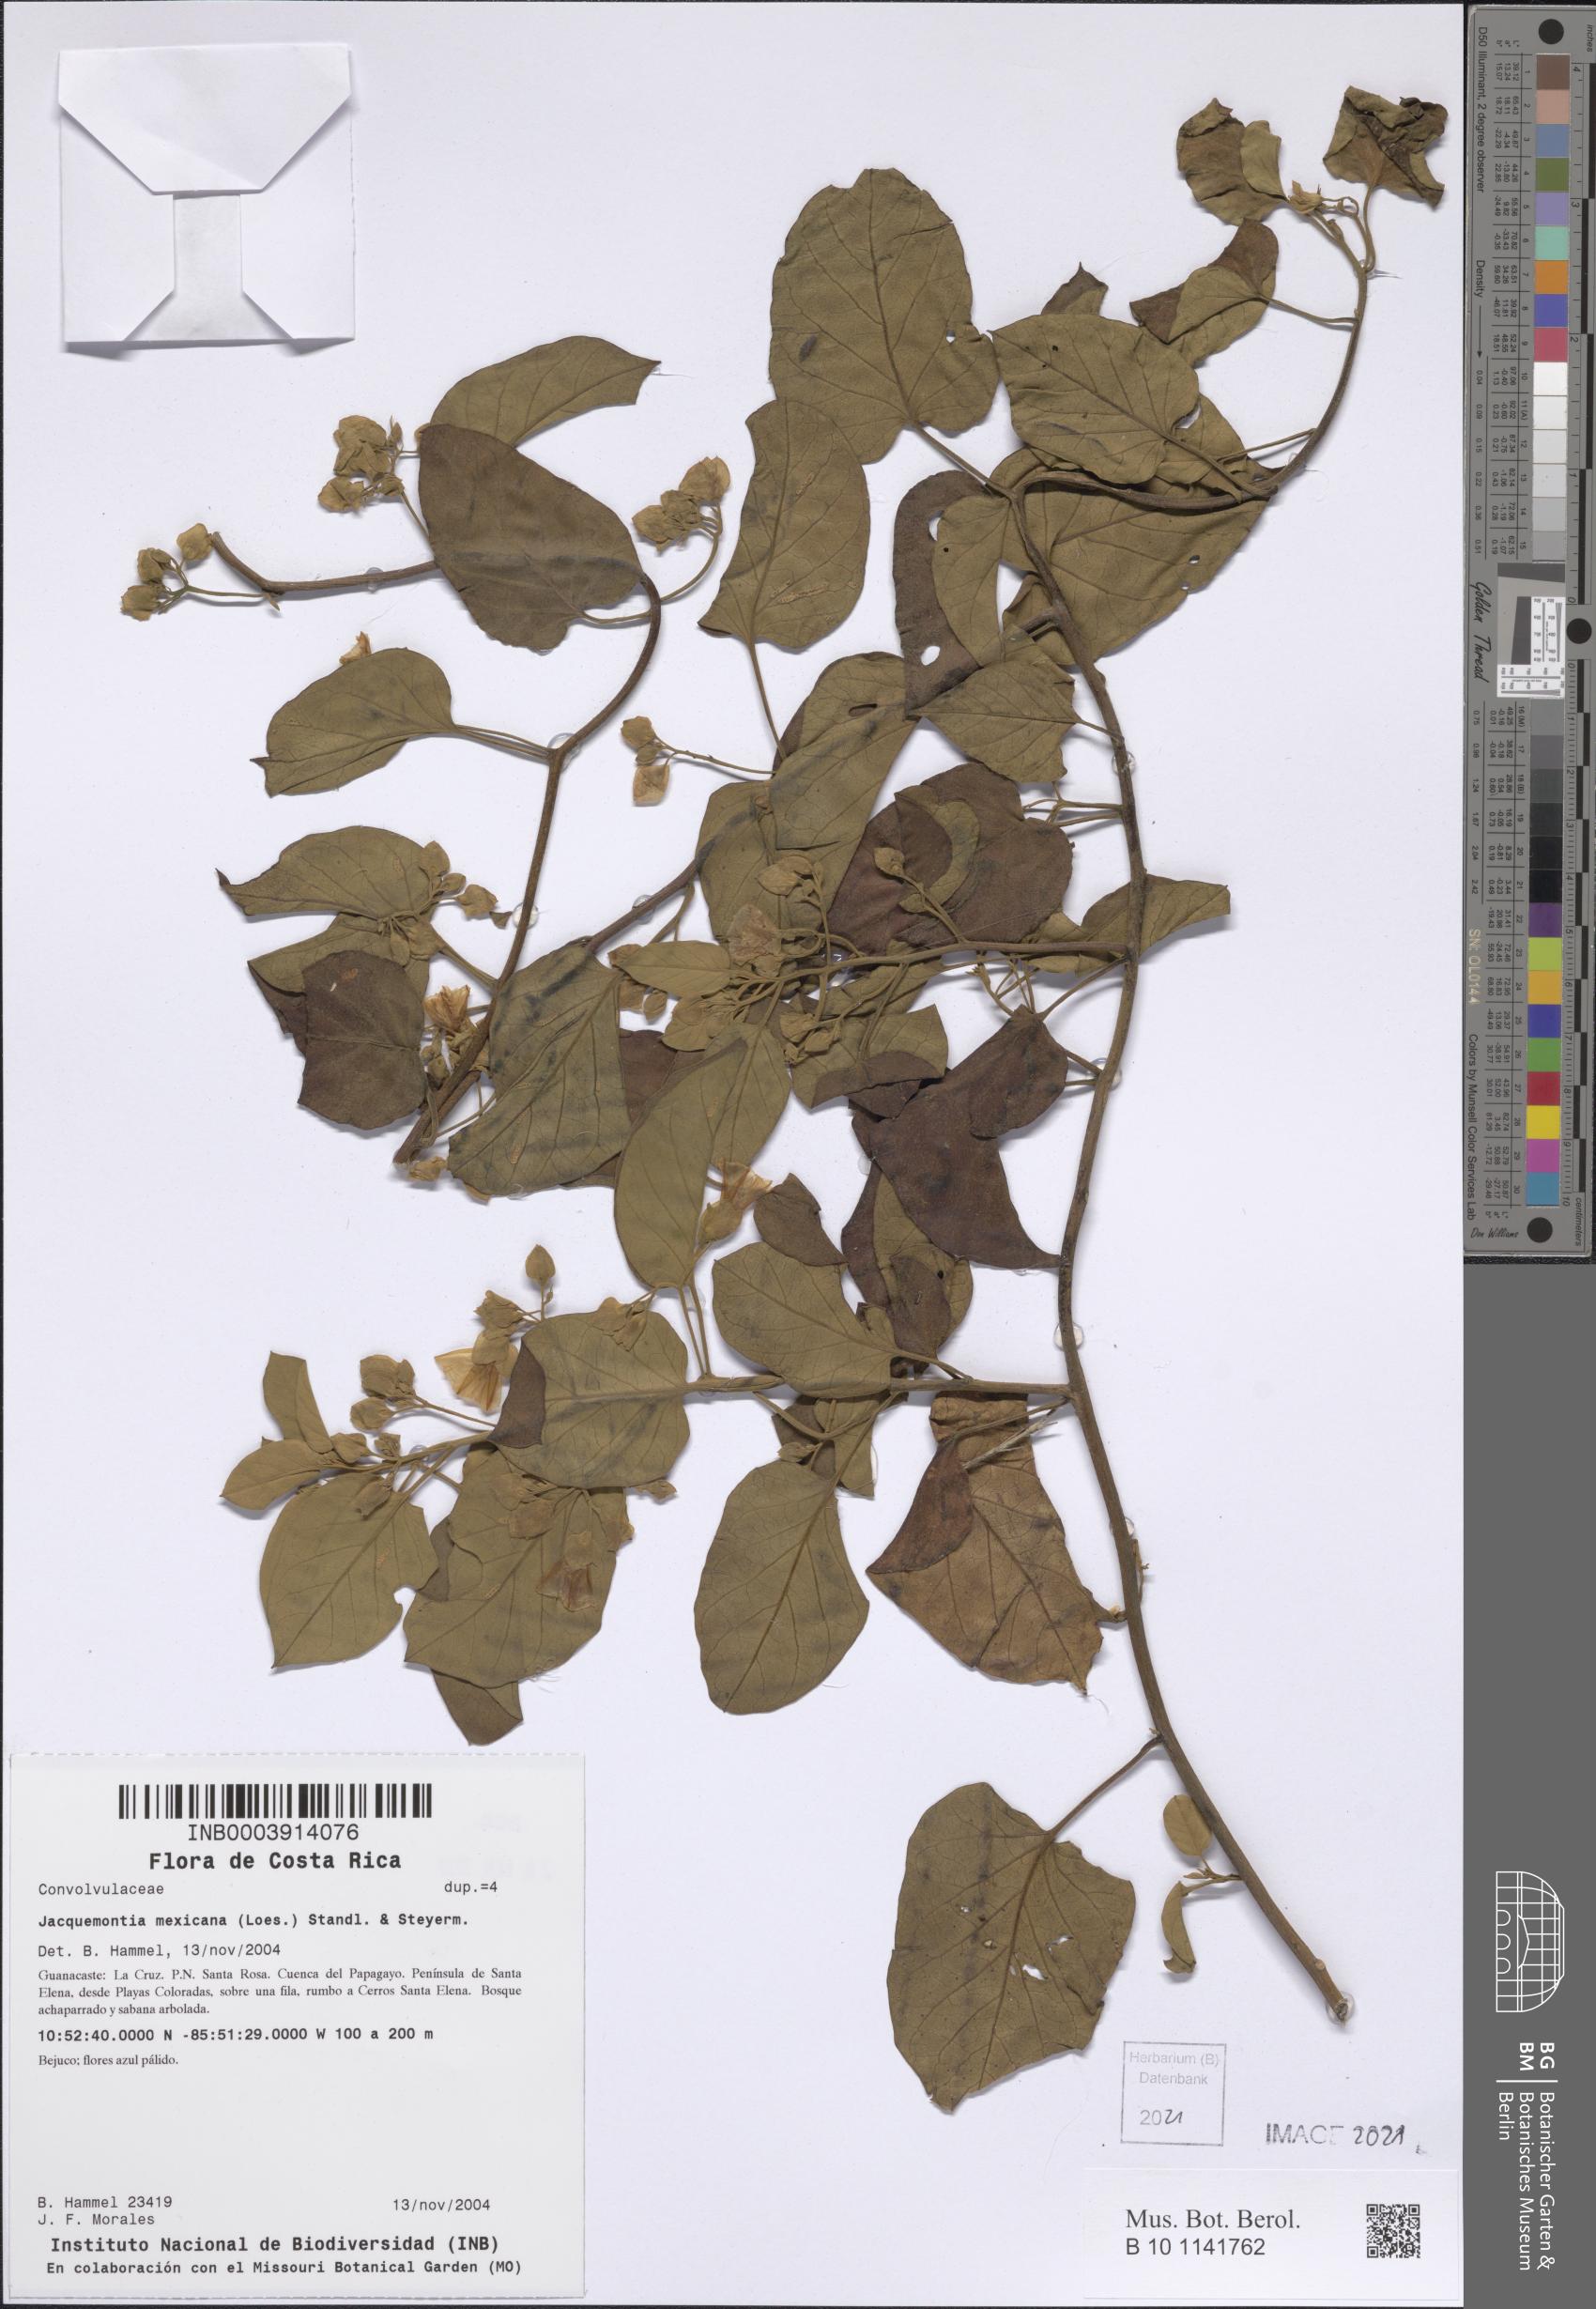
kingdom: Plantae
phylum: Tracheophyta
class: Magnoliopsida
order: Solanales
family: Convolvulaceae
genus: Jacquemontia
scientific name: Jacquemontia mexicana
